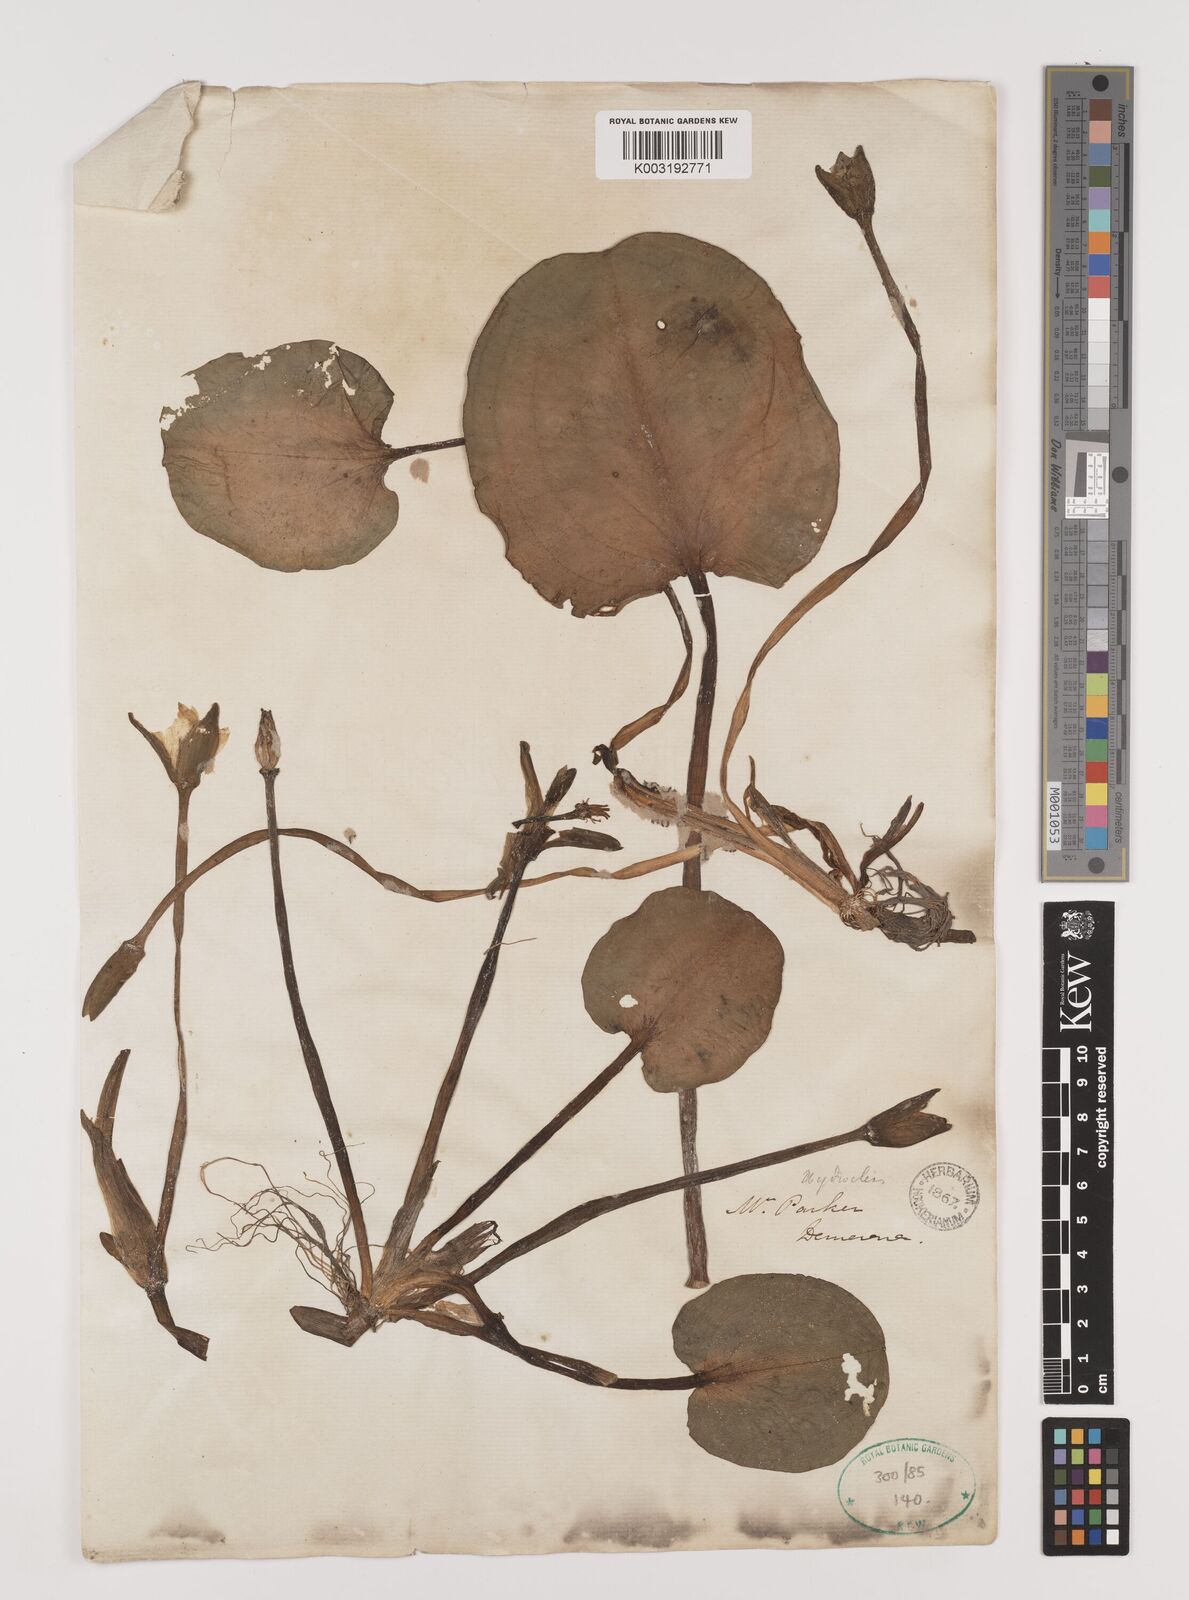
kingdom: Plantae
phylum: Tracheophyta
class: Liliopsida
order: Alismatales
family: Alismataceae
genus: Hydrocleys
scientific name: Hydrocleys nymphoides
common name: Water-poppy
